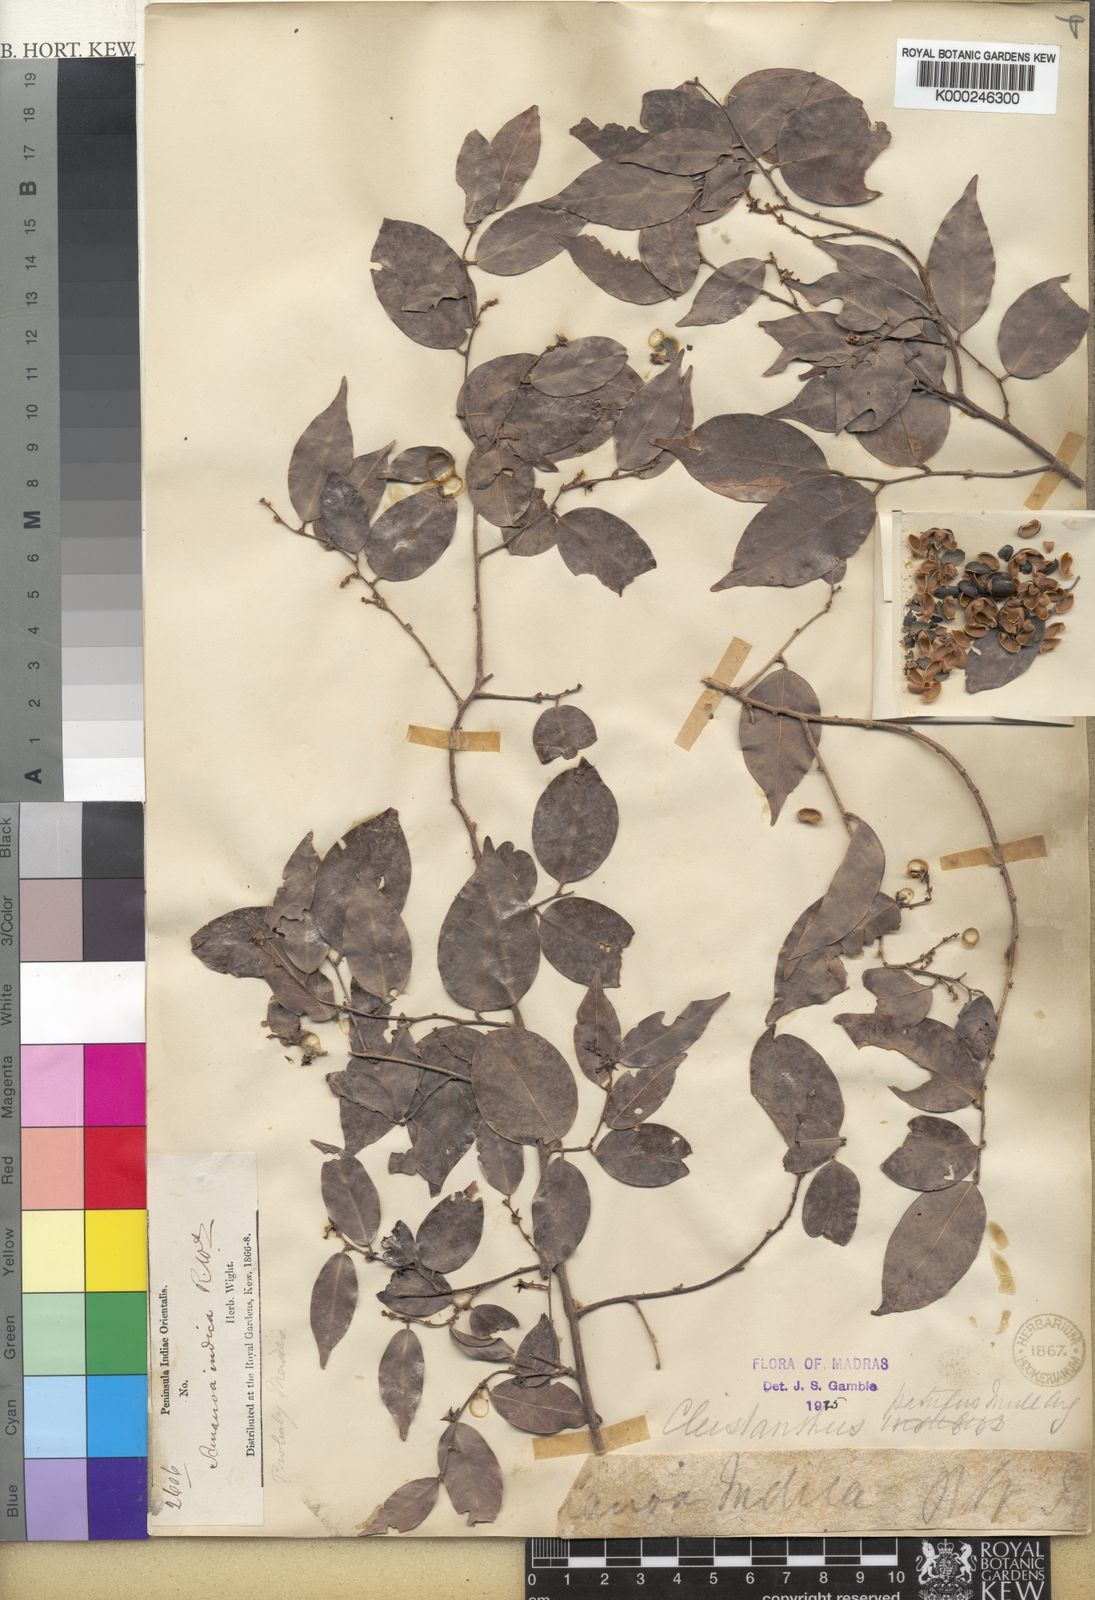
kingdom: Plantae
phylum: Tracheophyta
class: Magnoliopsida
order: Malpighiales
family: Phyllanthaceae
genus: Cleistanthus
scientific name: Cleistanthus
